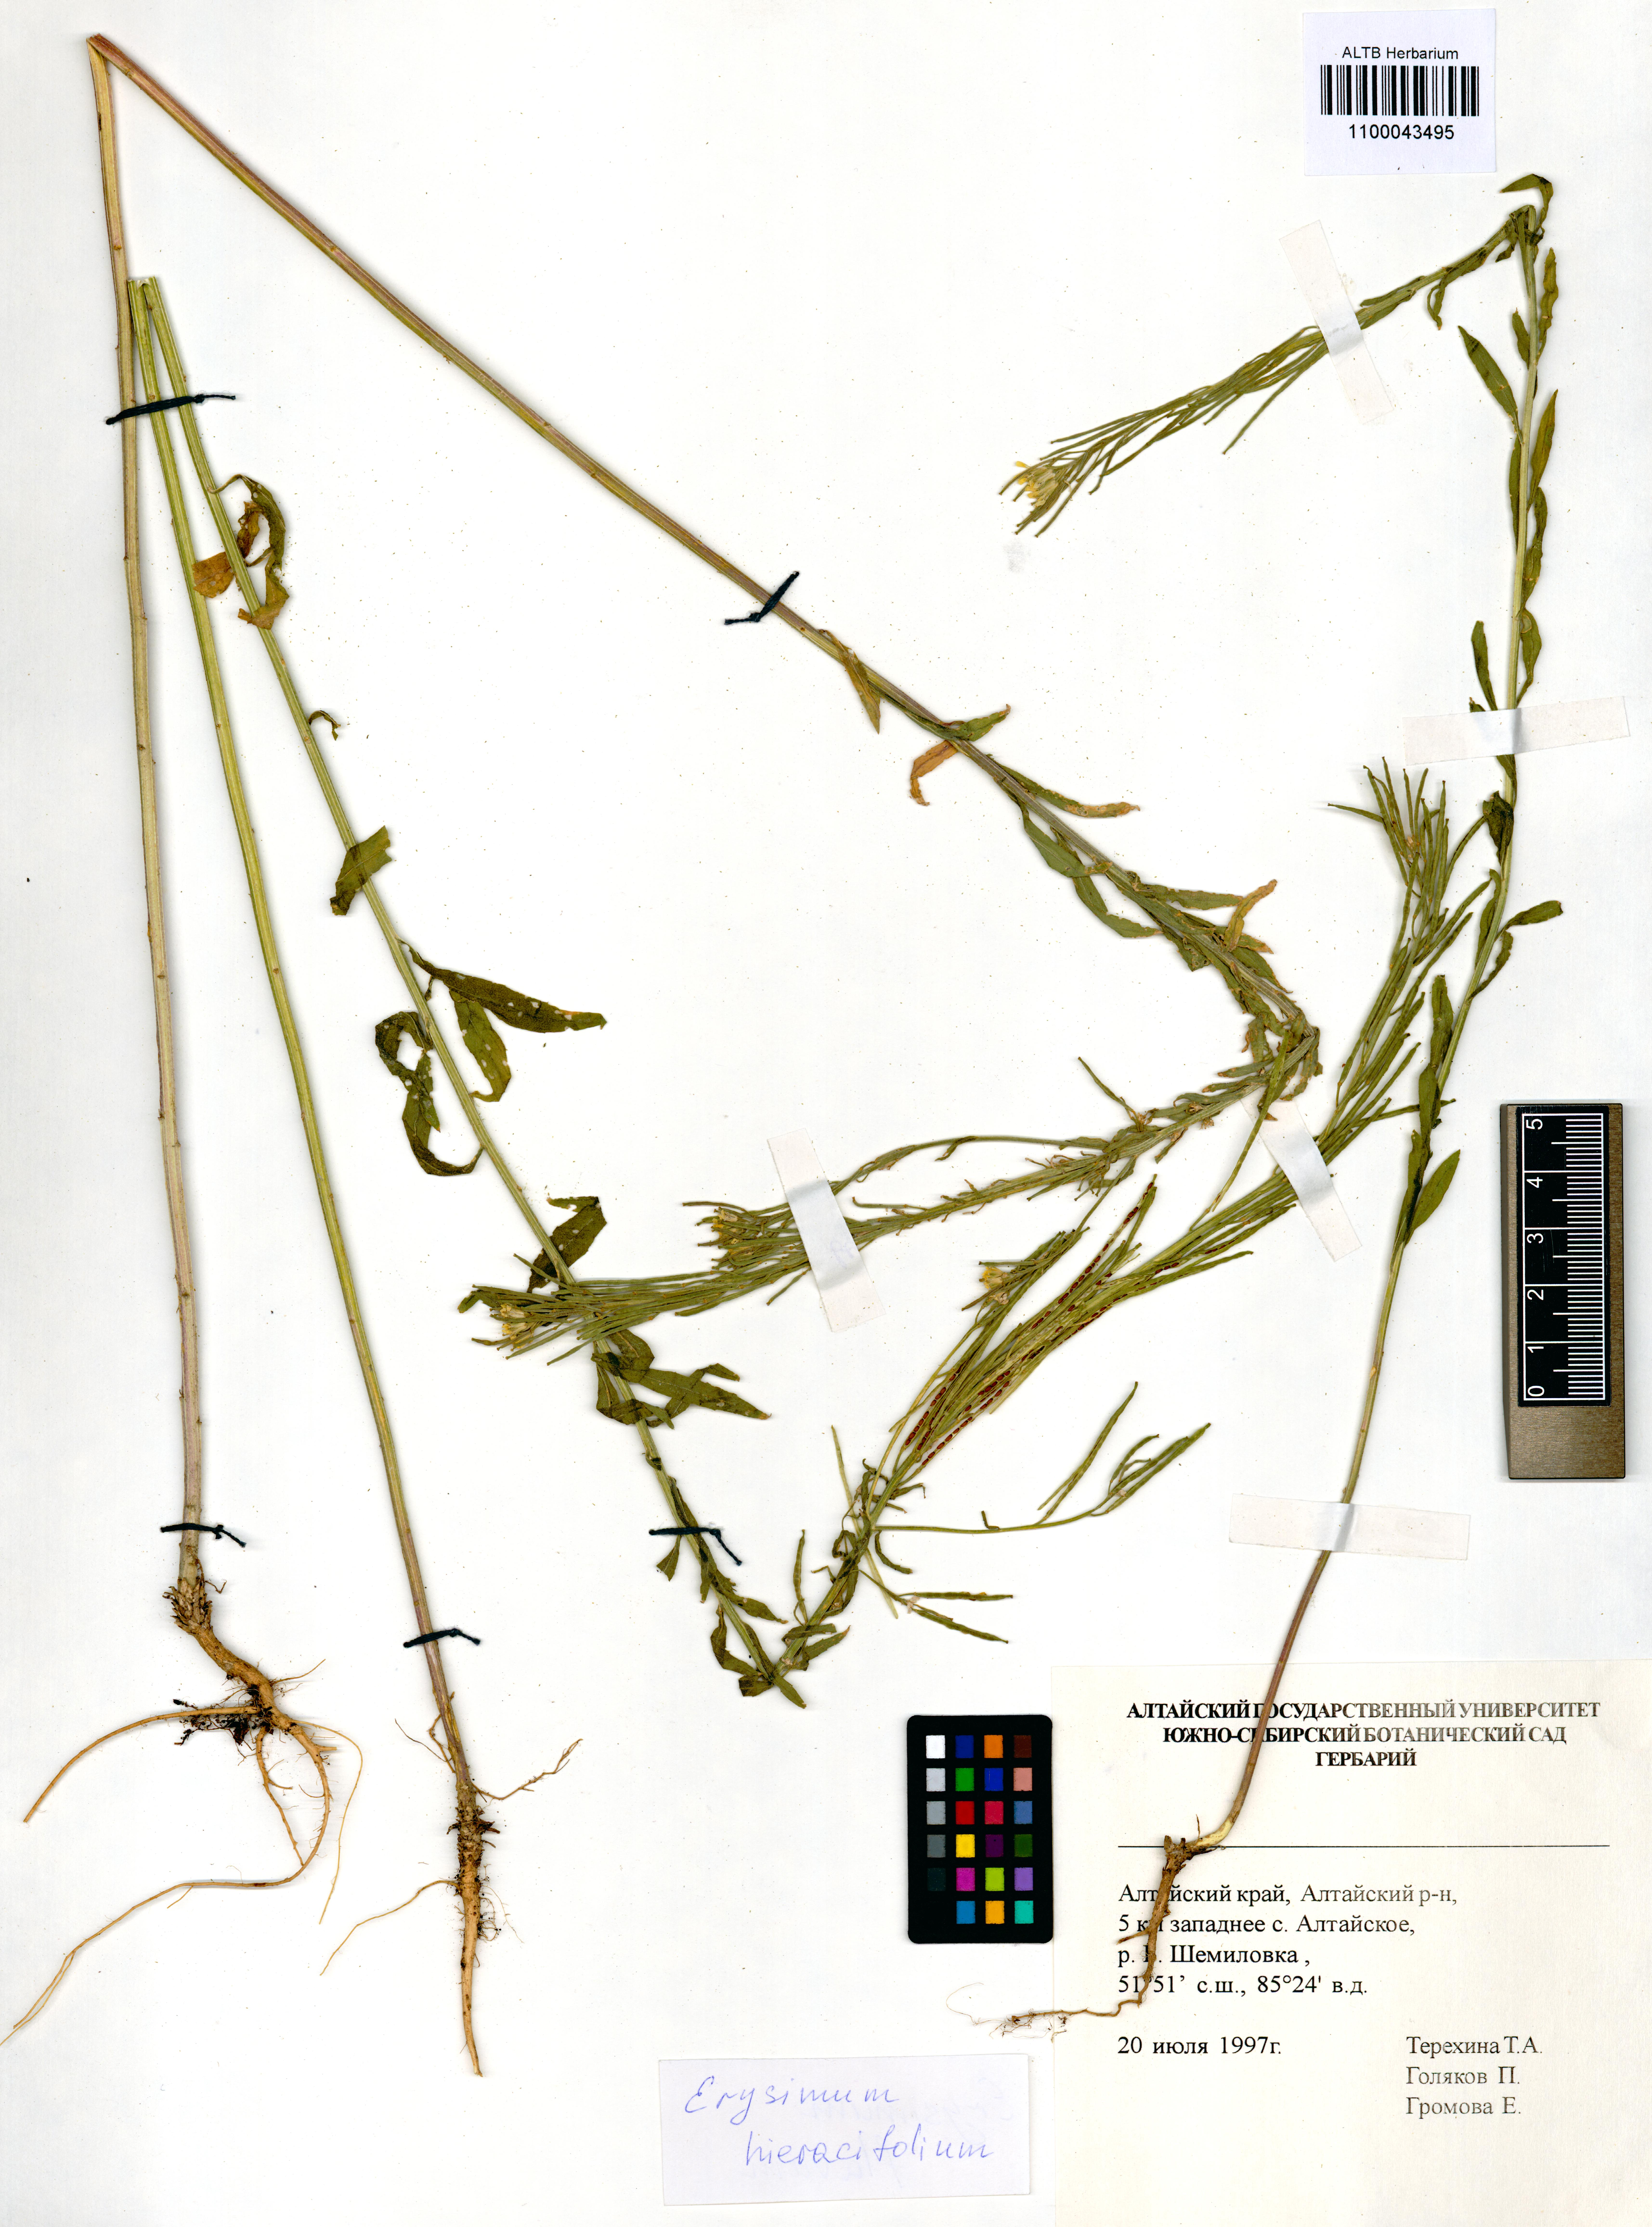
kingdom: Plantae
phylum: Tracheophyta
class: Magnoliopsida
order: Brassicales
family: Brassicaceae
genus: Erysimum
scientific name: Erysimum hieraciifolium
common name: European wallflower
